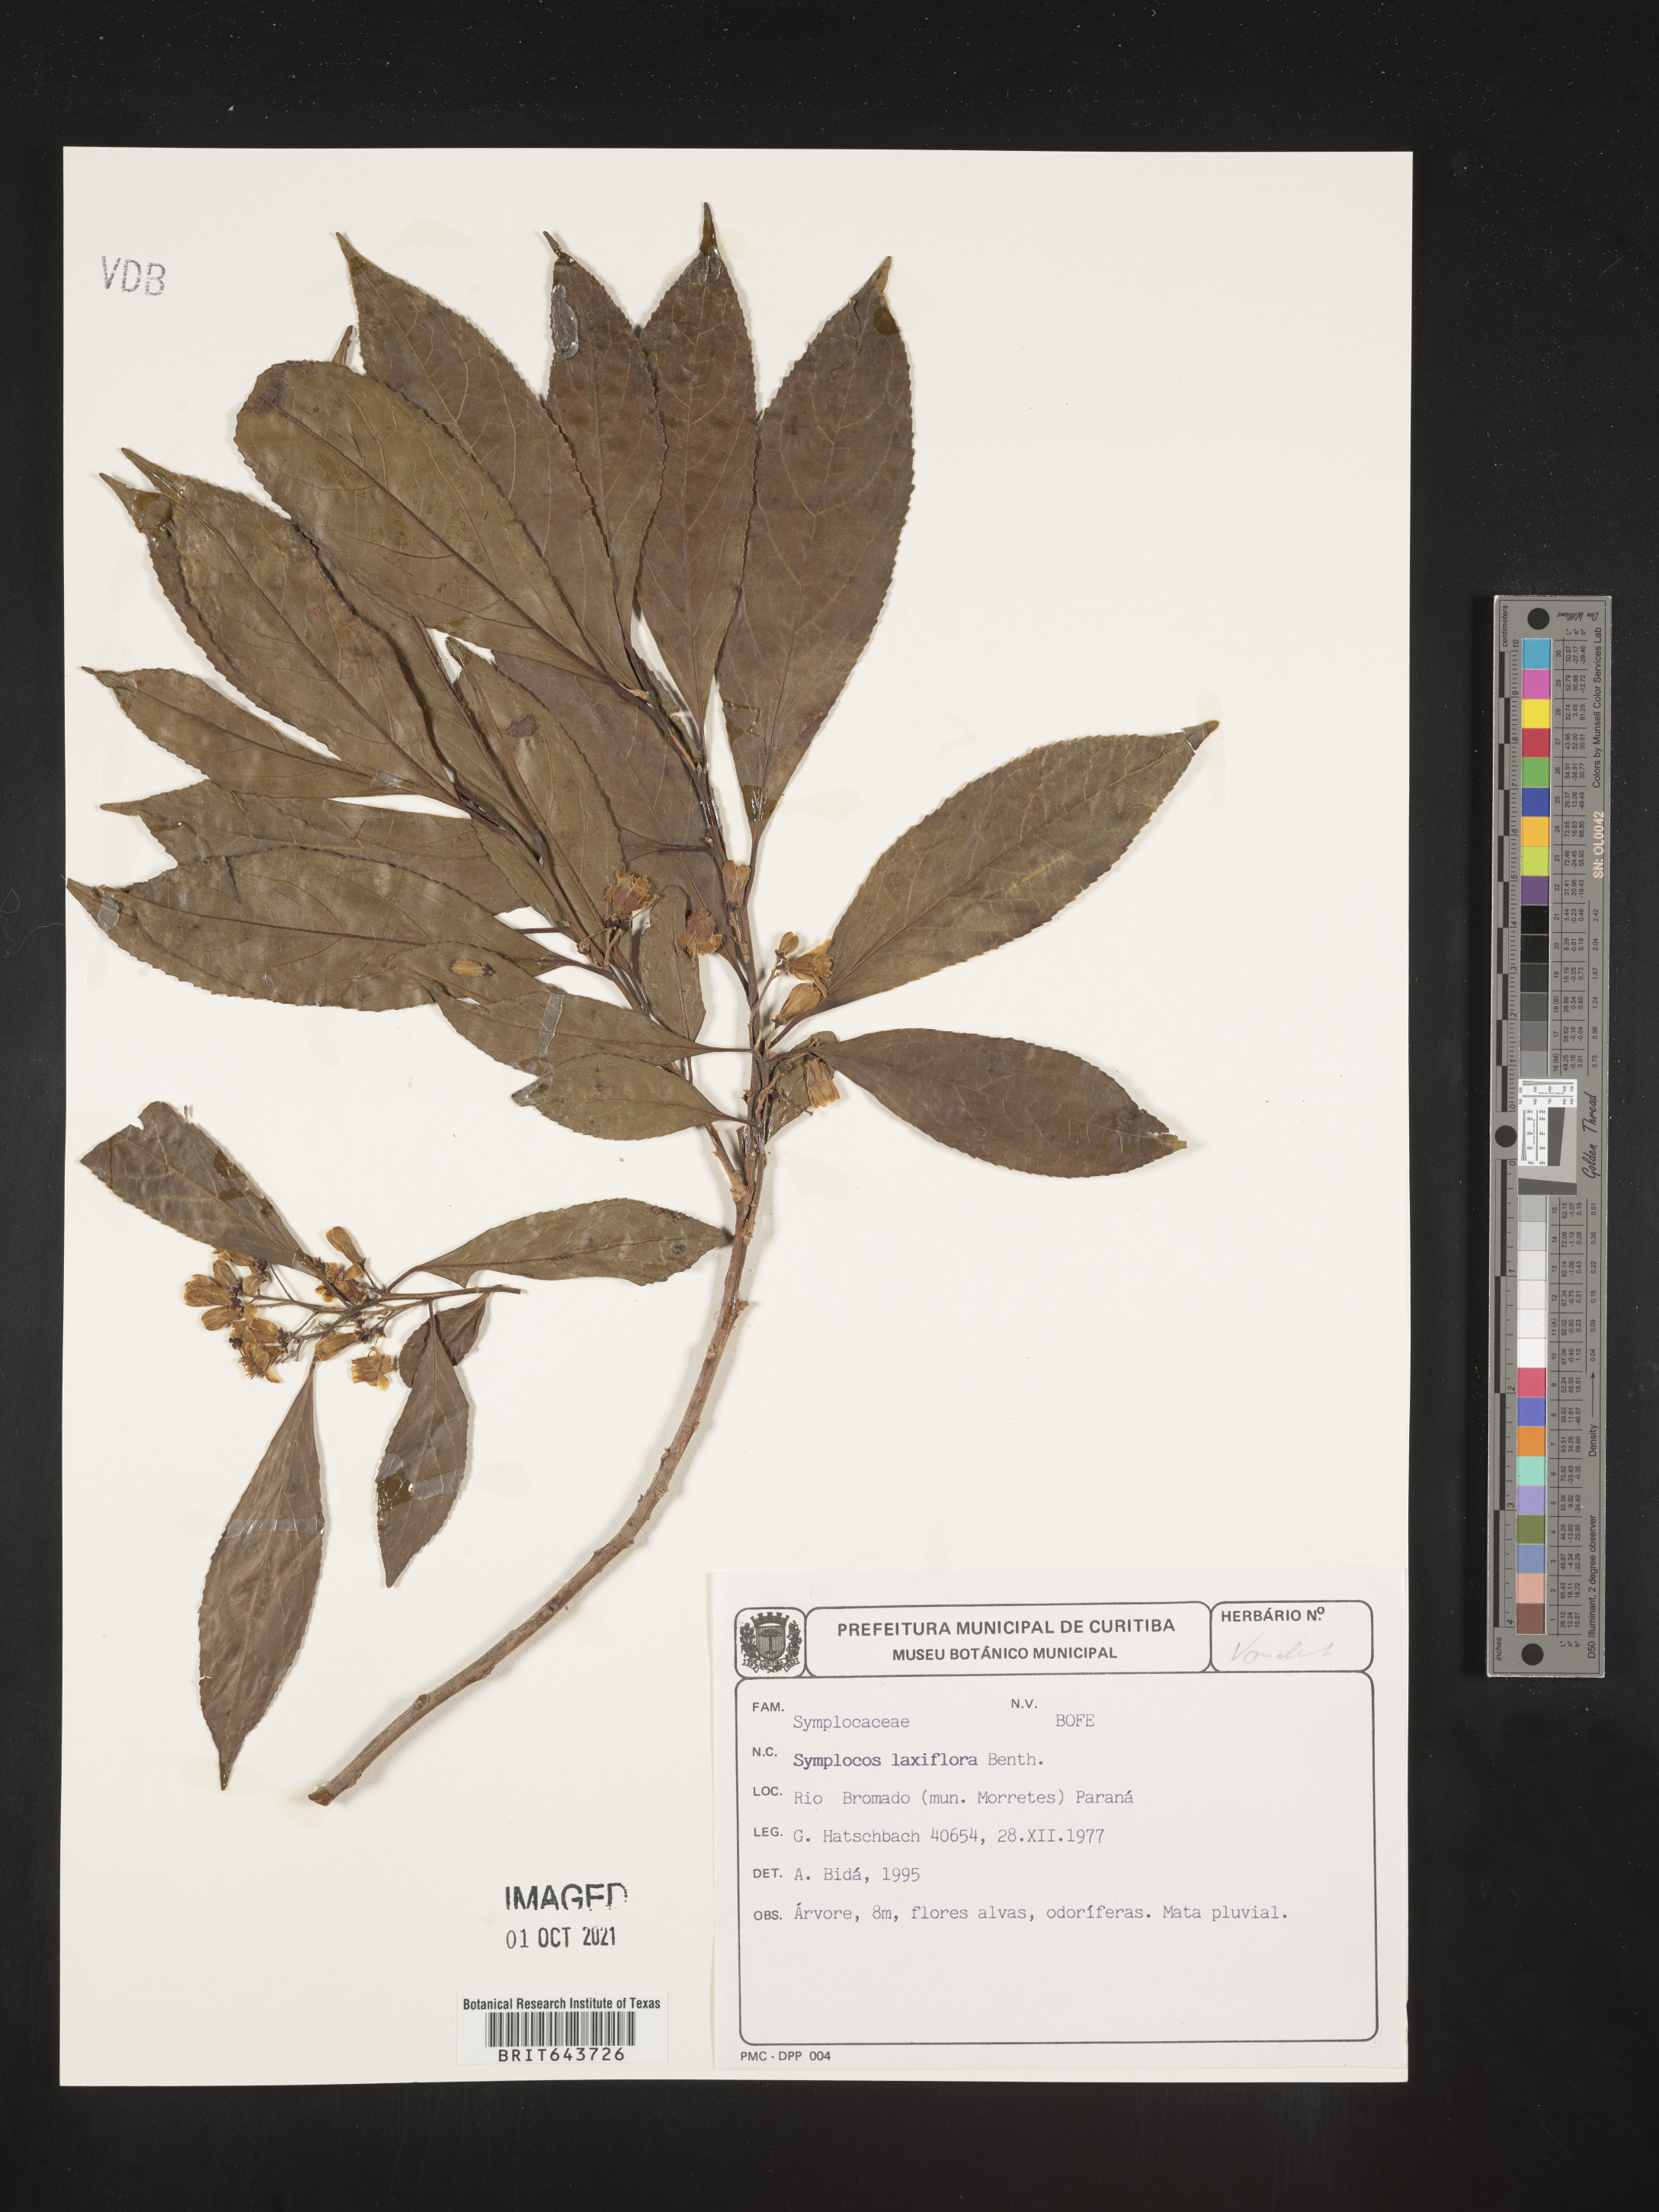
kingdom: Plantae
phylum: Tracheophyta
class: Magnoliopsida
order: Ericales
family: Symplocaceae
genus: Symplocos
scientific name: Symplocos
